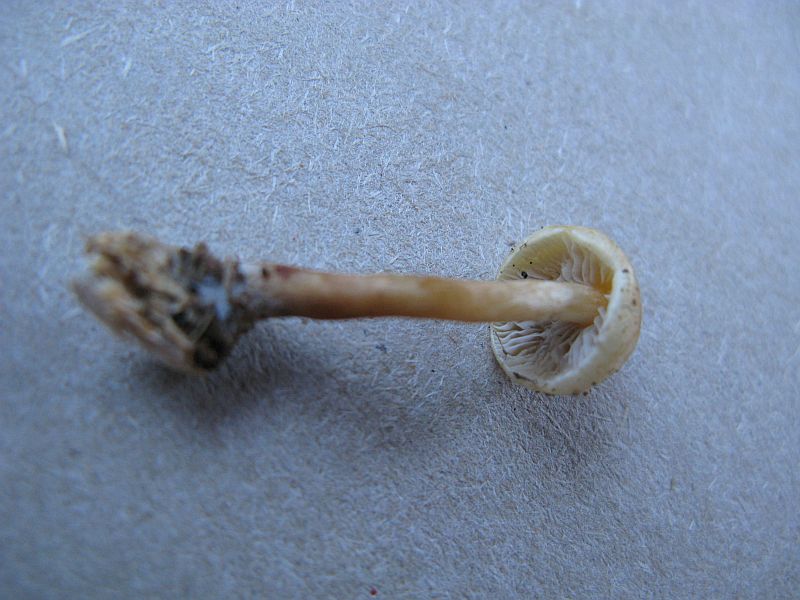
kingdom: Fungi
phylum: Basidiomycota
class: Agaricomycetes
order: Agaricales
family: Strophariaceae
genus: Hypholoma
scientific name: Hypholoma capnoides
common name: gran-svovlhat
